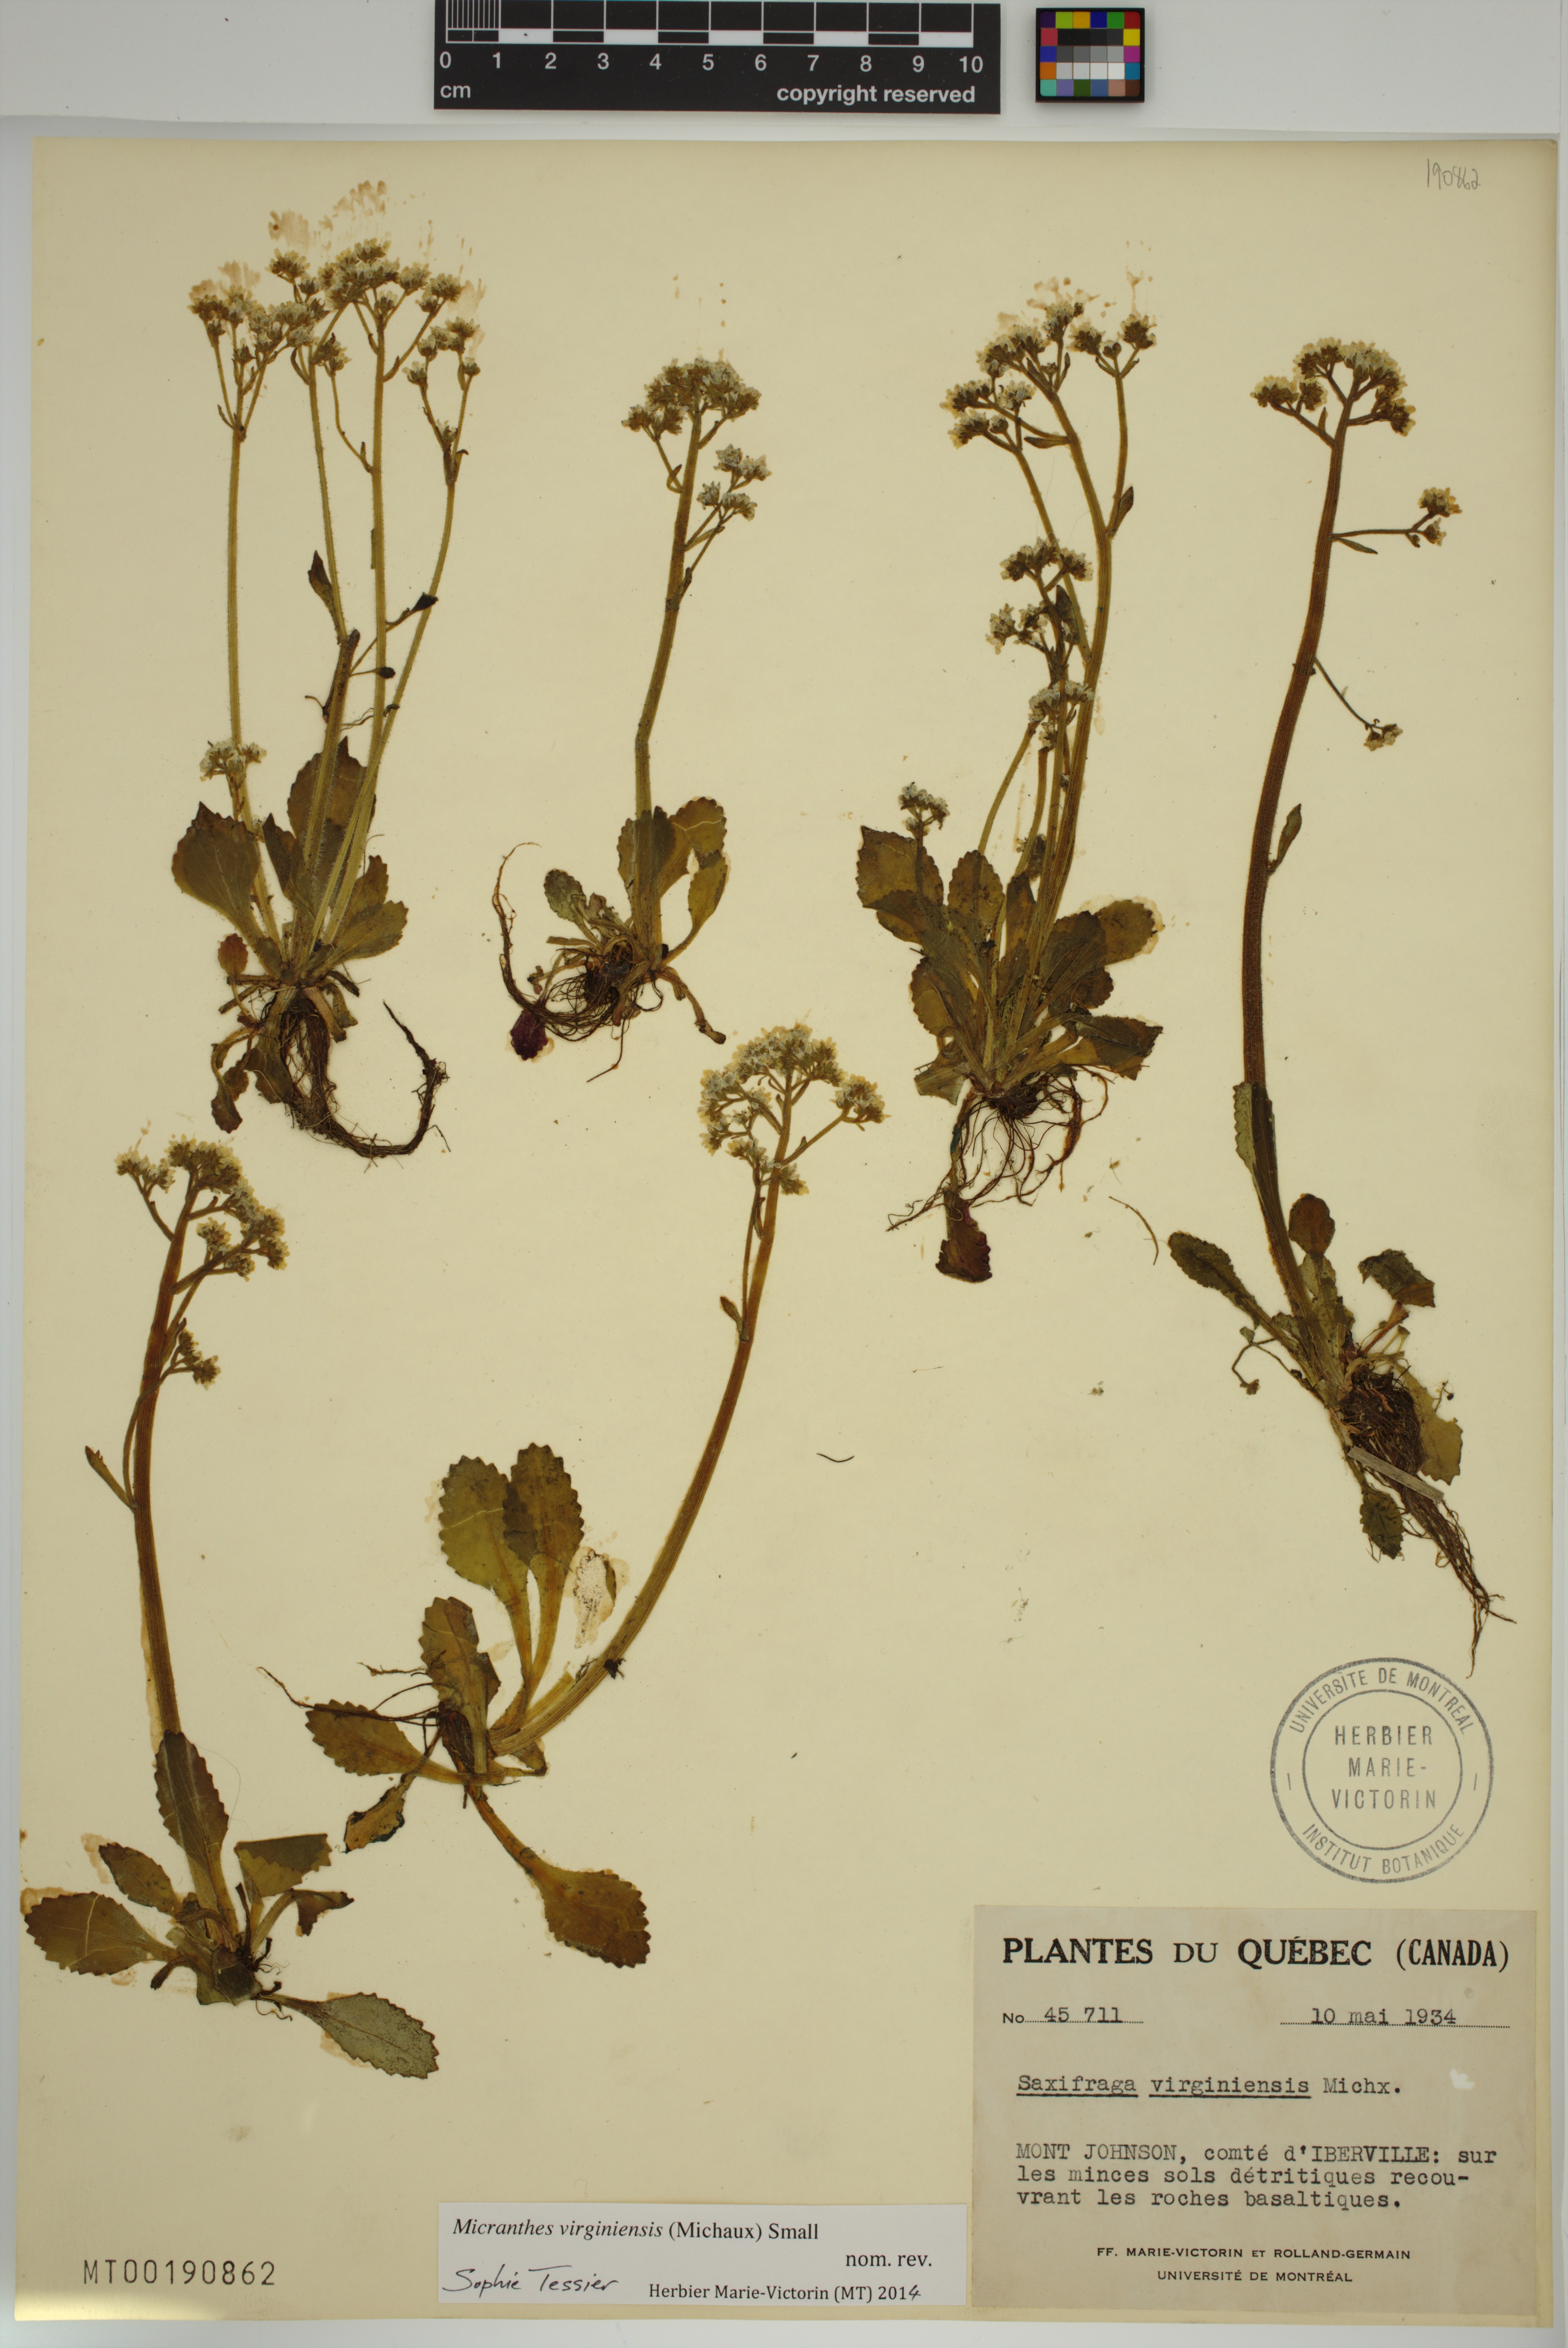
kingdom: Plantae
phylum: Tracheophyta
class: Magnoliopsida
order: Saxifragales
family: Saxifragaceae
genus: Micranthes
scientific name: Micranthes virginiensis
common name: Early saxifrage
